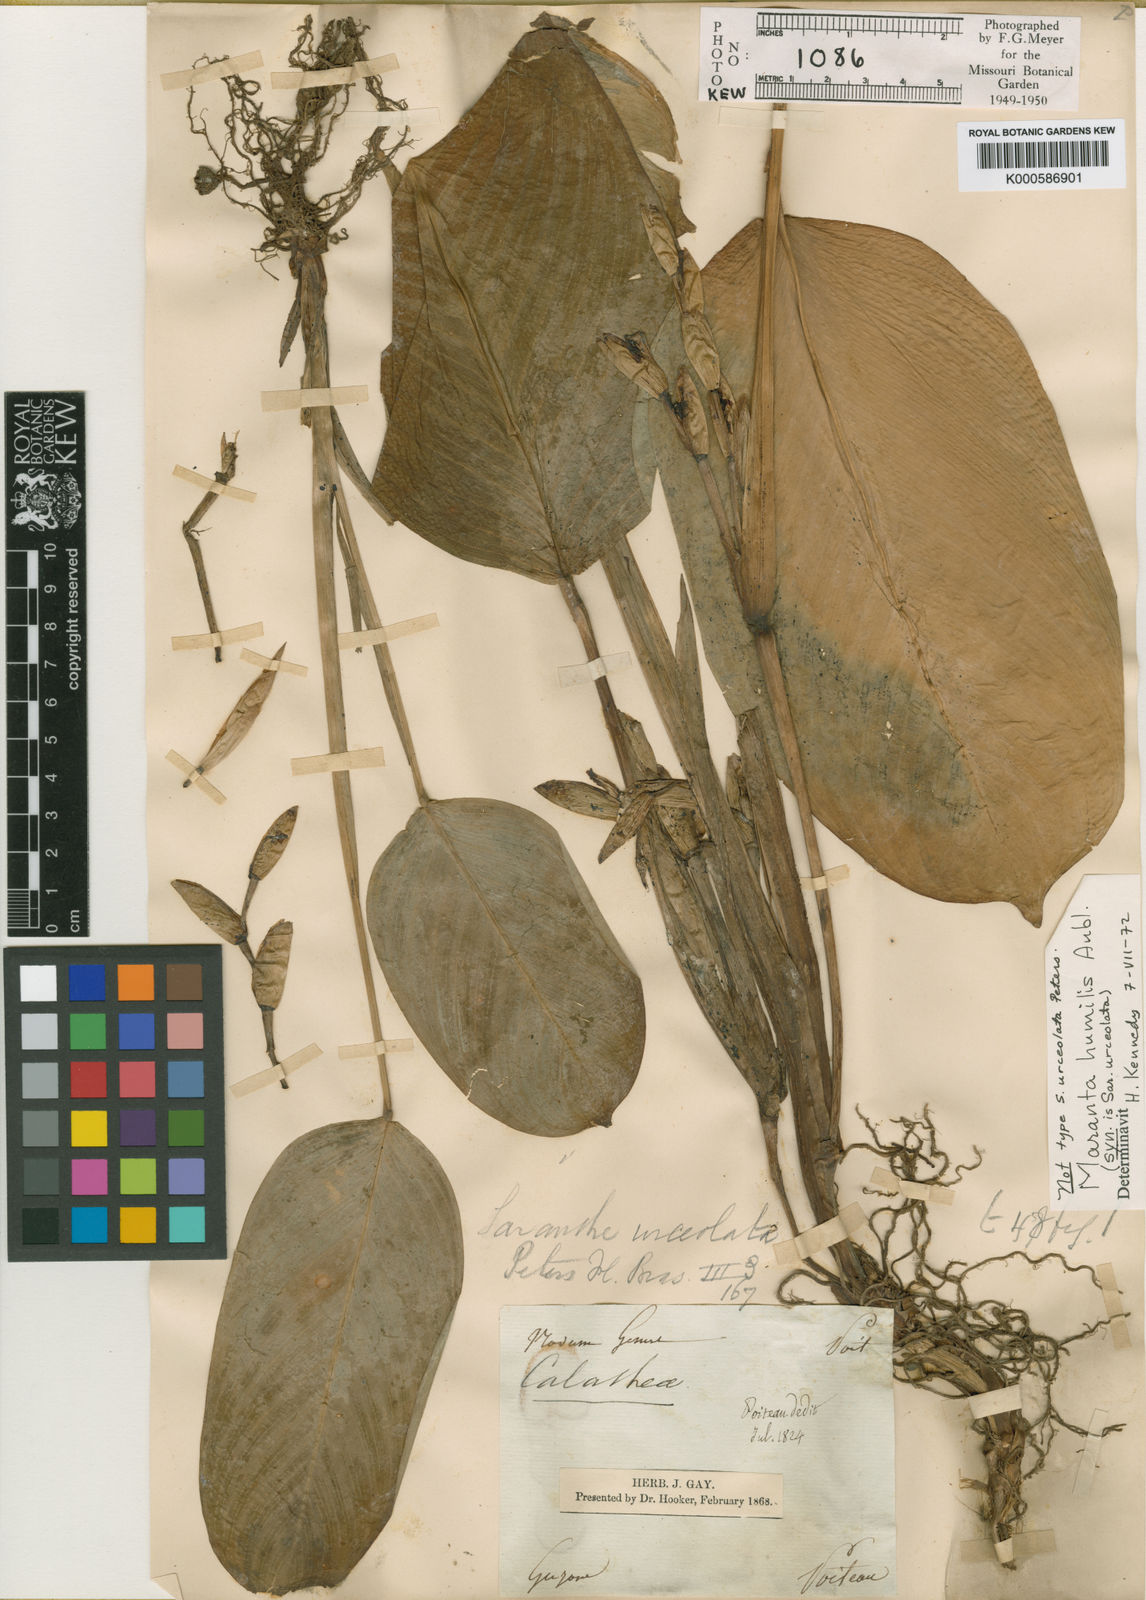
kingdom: Plantae
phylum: Tracheophyta
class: Liliopsida
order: Zingiberales
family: Marantaceae
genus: Maranta
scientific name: Maranta humilis
